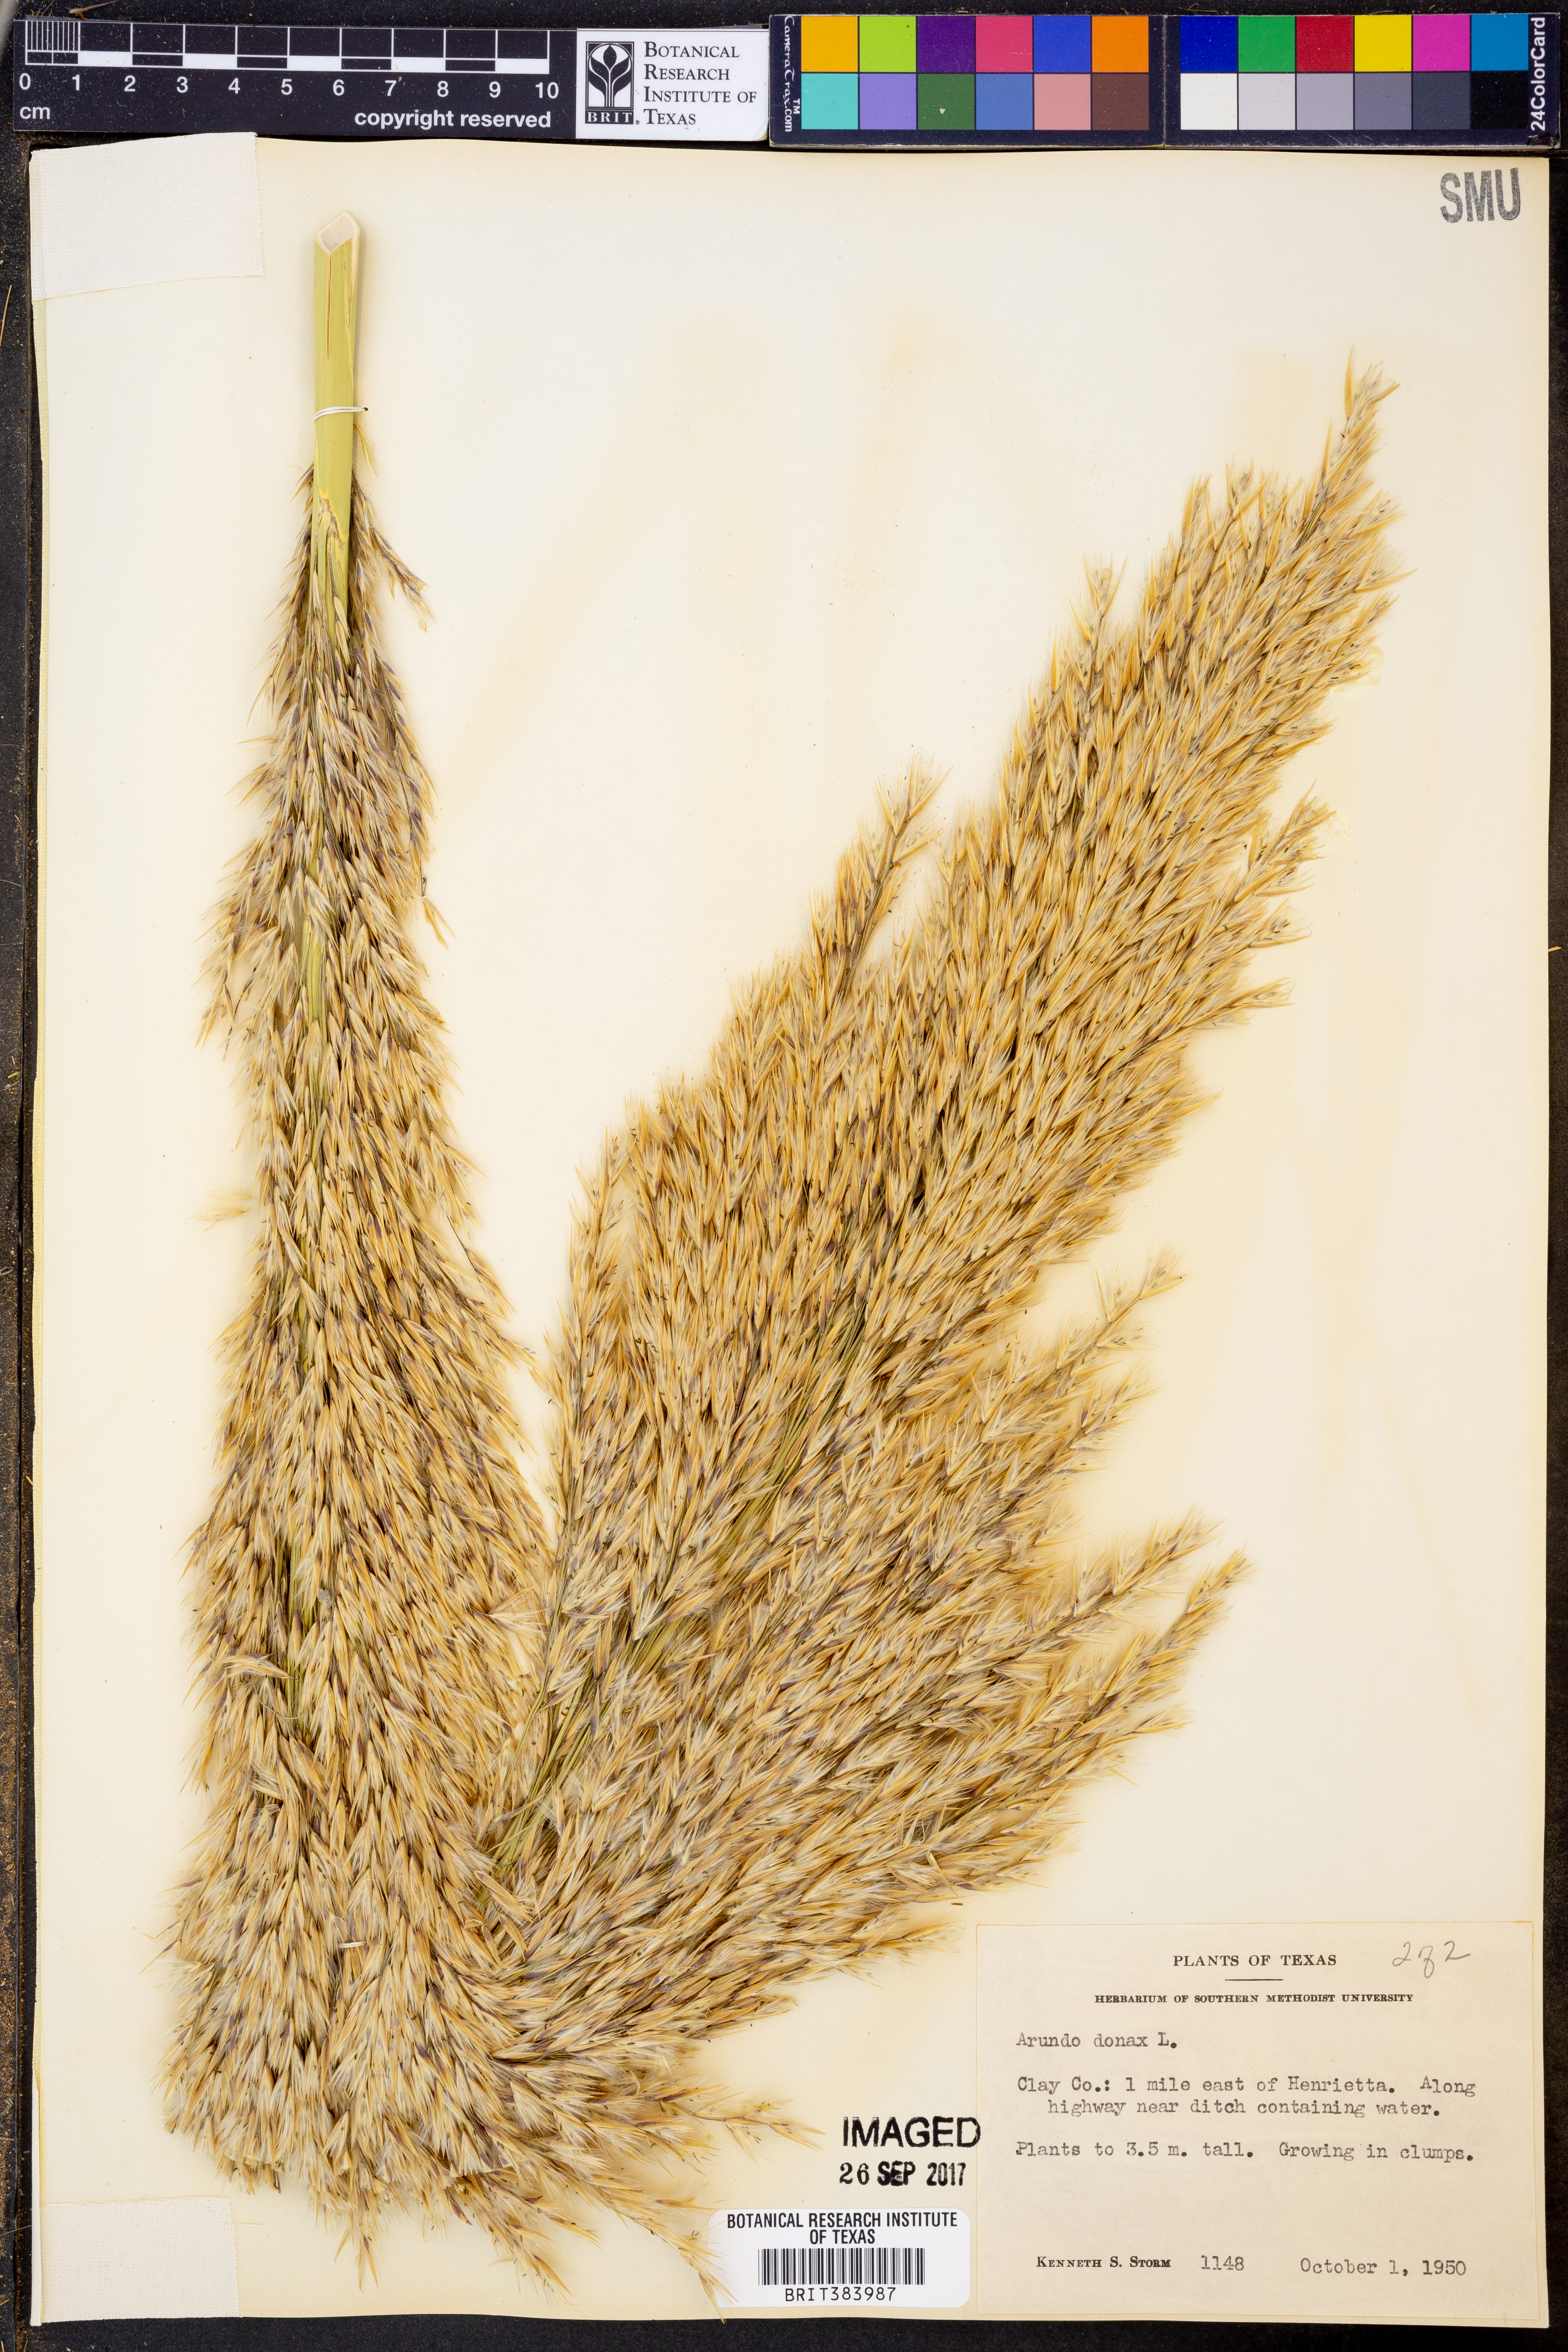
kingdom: Plantae
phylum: Tracheophyta
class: Liliopsida
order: Poales
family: Poaceae
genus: Arundo
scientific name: Arundo donax
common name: Giant reed
